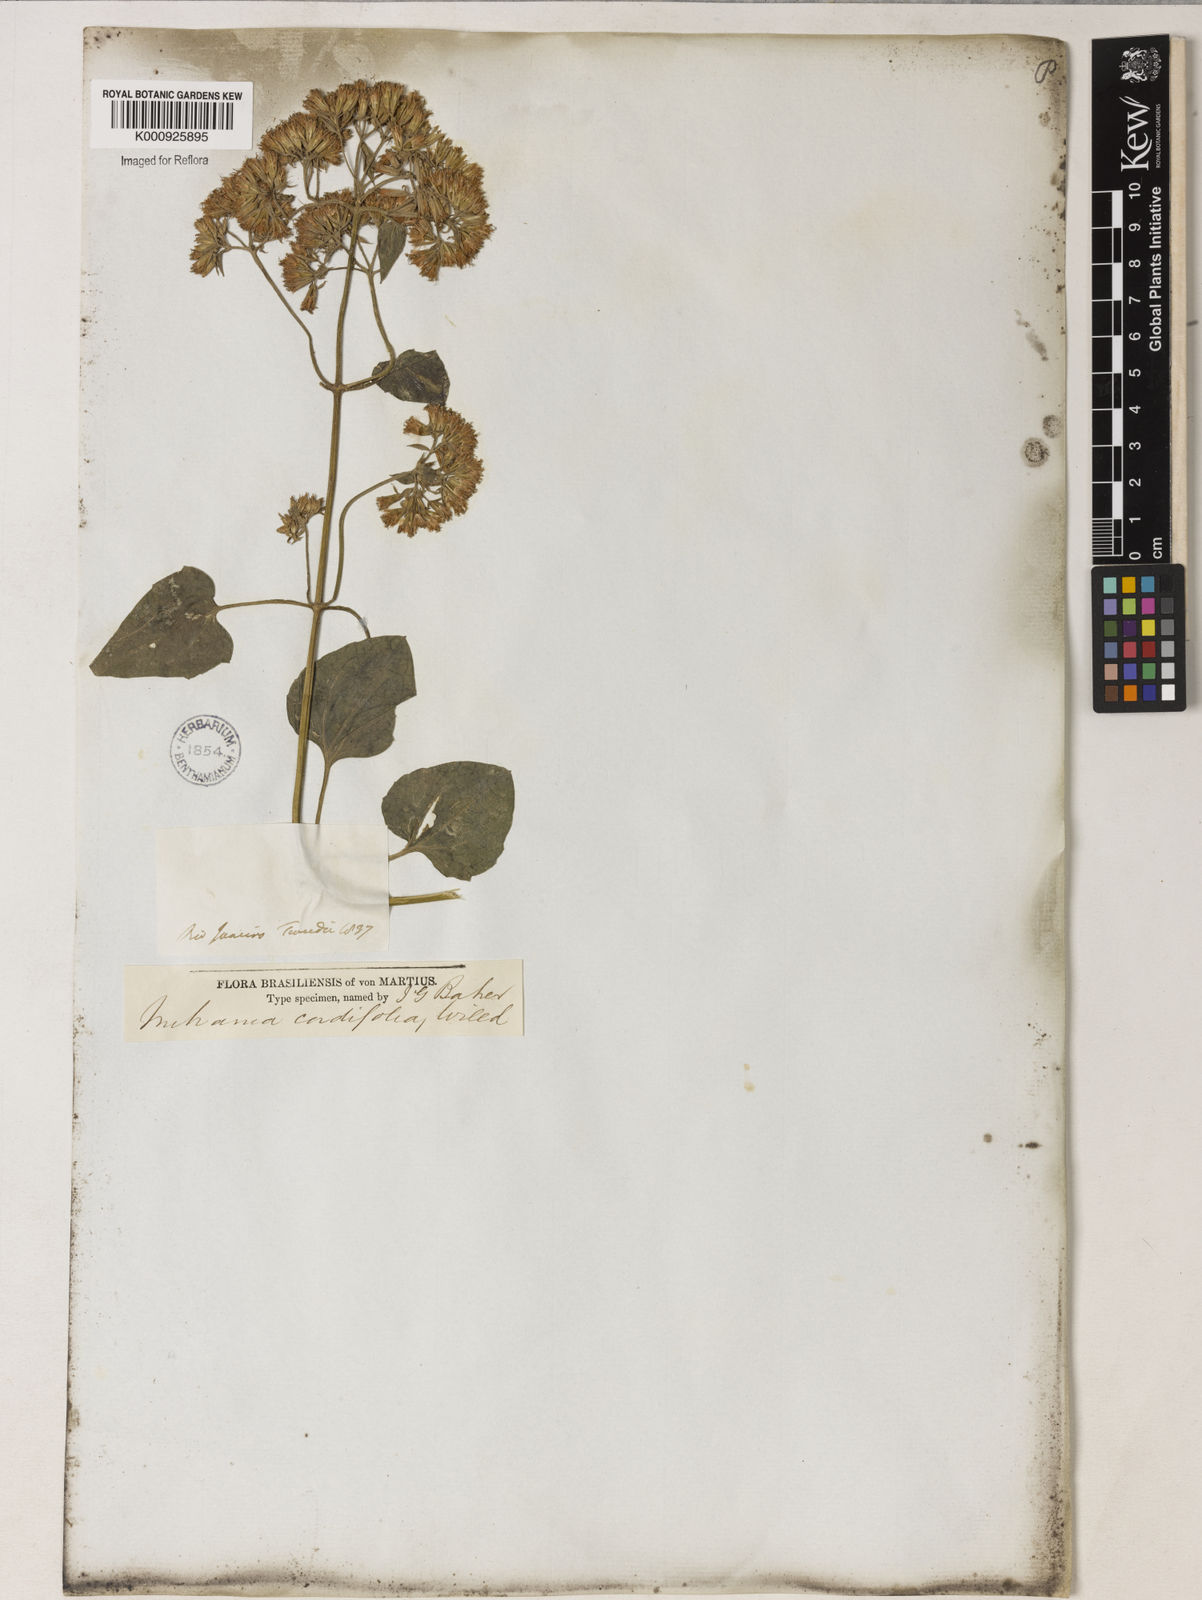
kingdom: Plantae
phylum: Tracheophyta
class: Magnoliopsida
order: Asterales
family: Asteraceae
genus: Mikania
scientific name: Mikania
